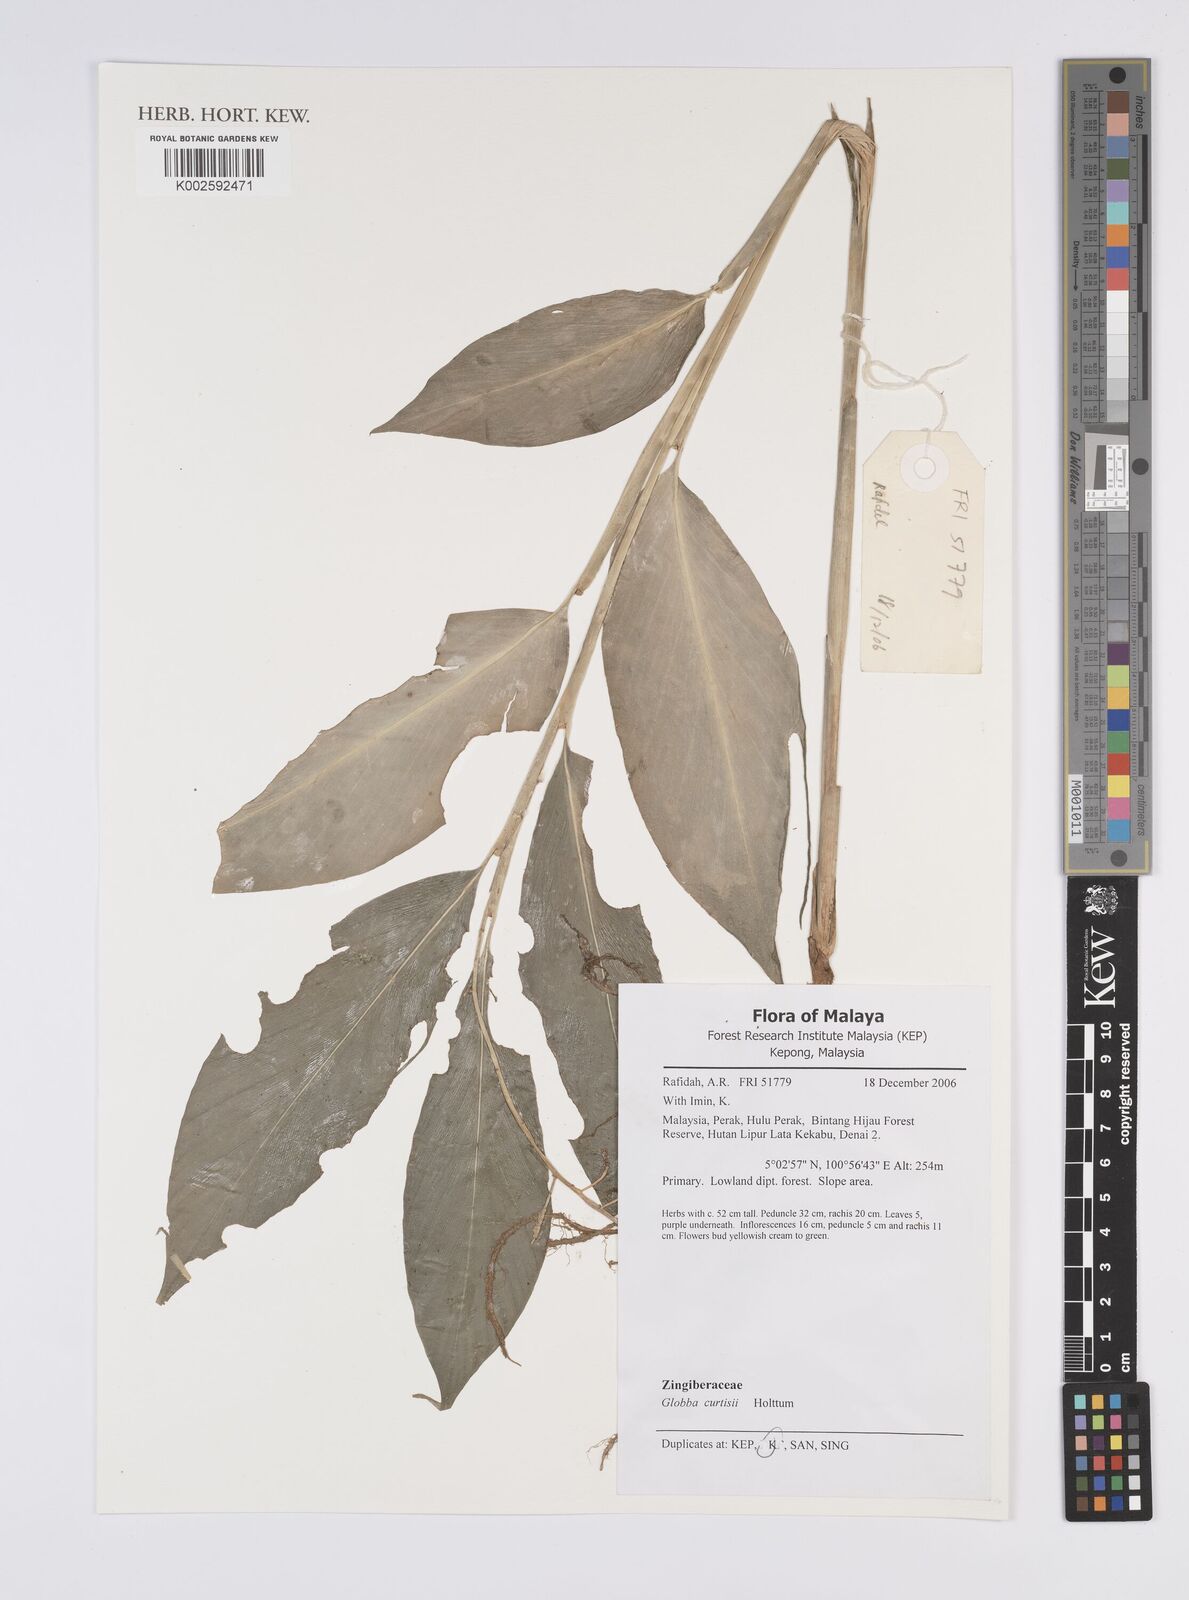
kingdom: Plantae
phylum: Tracheophyta
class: Liliopsida
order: Zingiberales
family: Zingiberaceae
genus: Globba
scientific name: Globba curtisii
